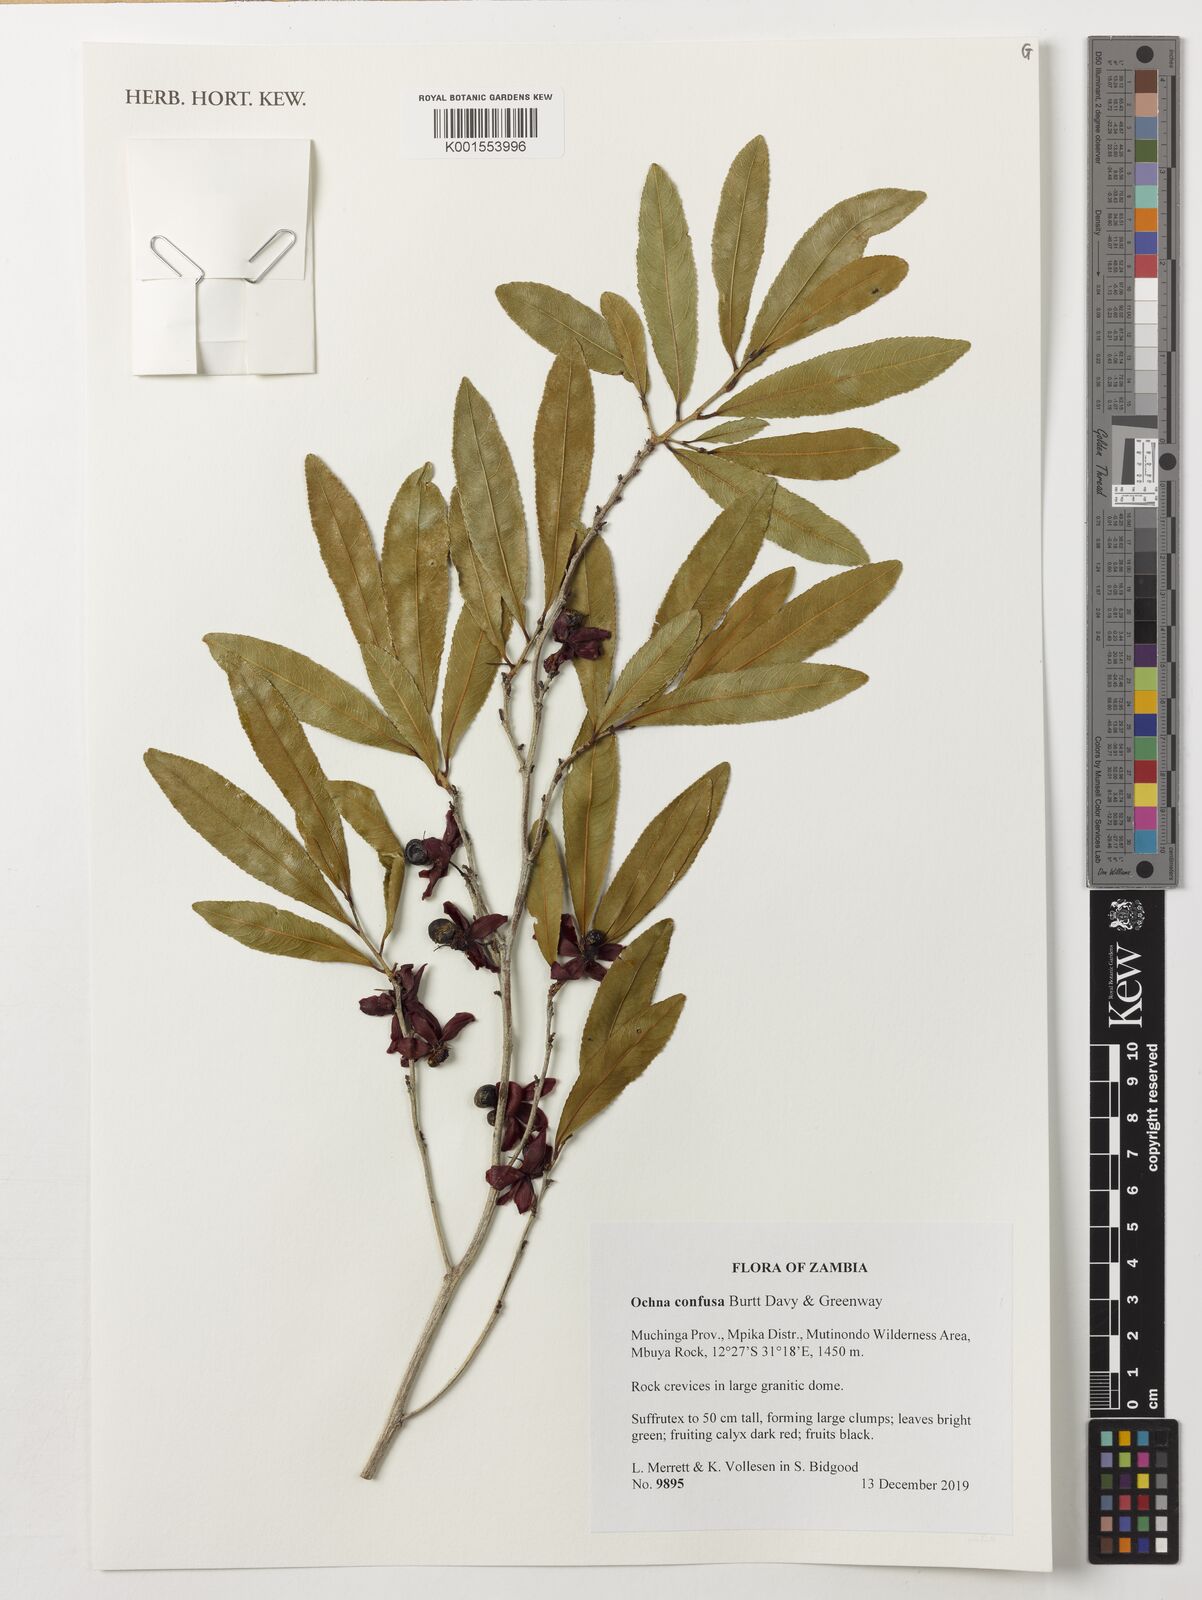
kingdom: Plantae
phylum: Tracheophyta
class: Magnoliopsida
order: Malpighiales
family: Ochnaceae
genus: Ochna
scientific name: Ochna confusa
